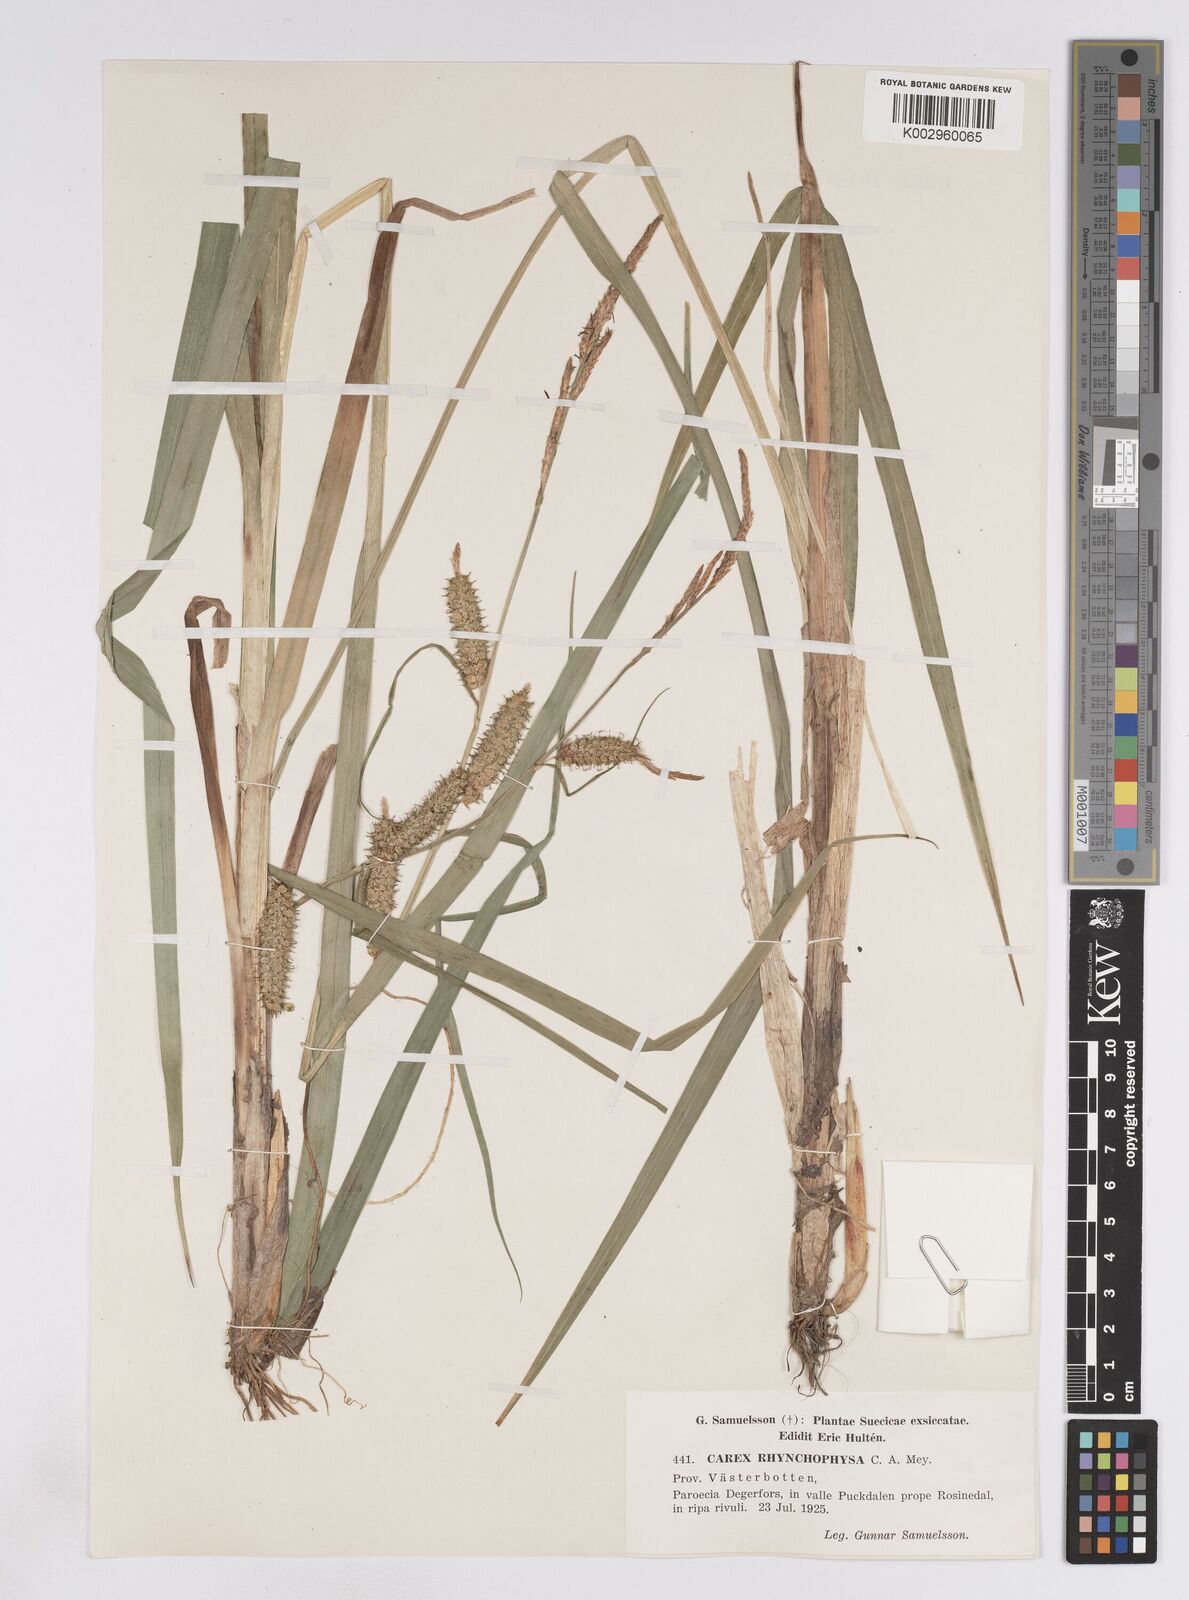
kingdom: Plantae
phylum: Tracheophyta
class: Liliopsida
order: Poales
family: Cyperaceae
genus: Carex
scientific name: Carex utriculata
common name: Beaked sedge
